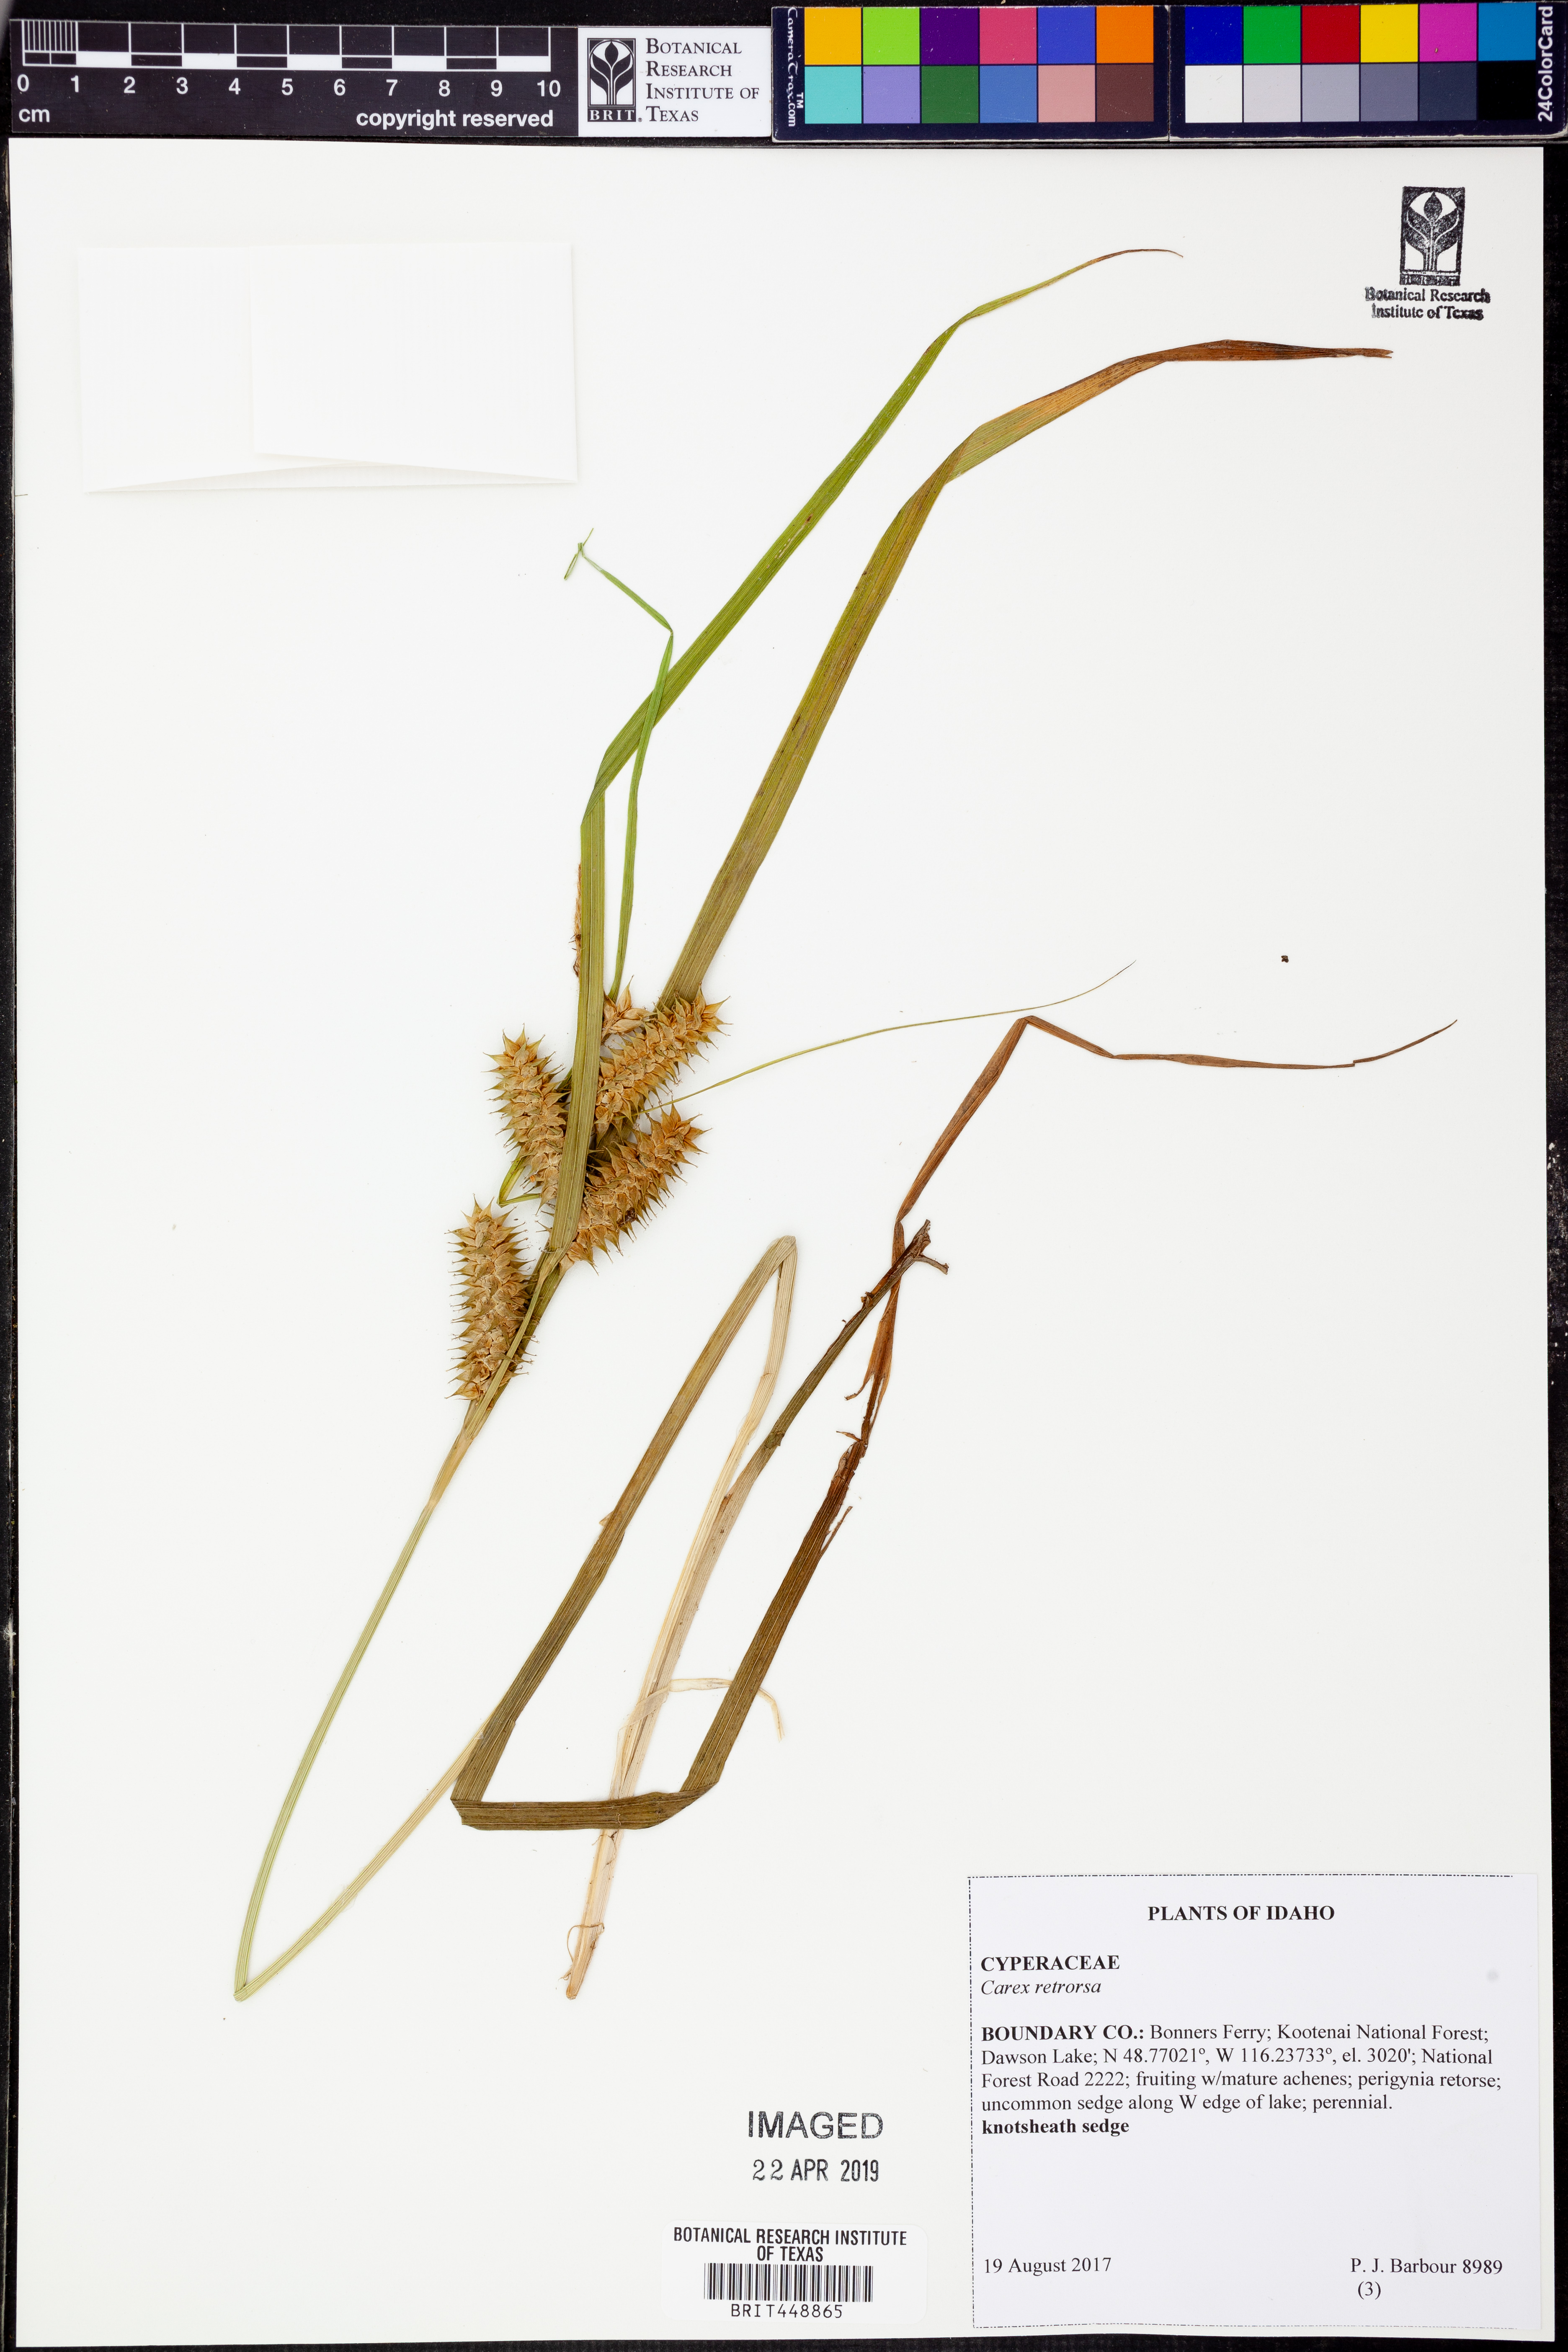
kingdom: Plantae
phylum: Tracheophyta
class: Liliopsida
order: Poales
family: Cyperaceae
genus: Carex
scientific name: Carex retrorsa
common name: Knot-sheath sedge
